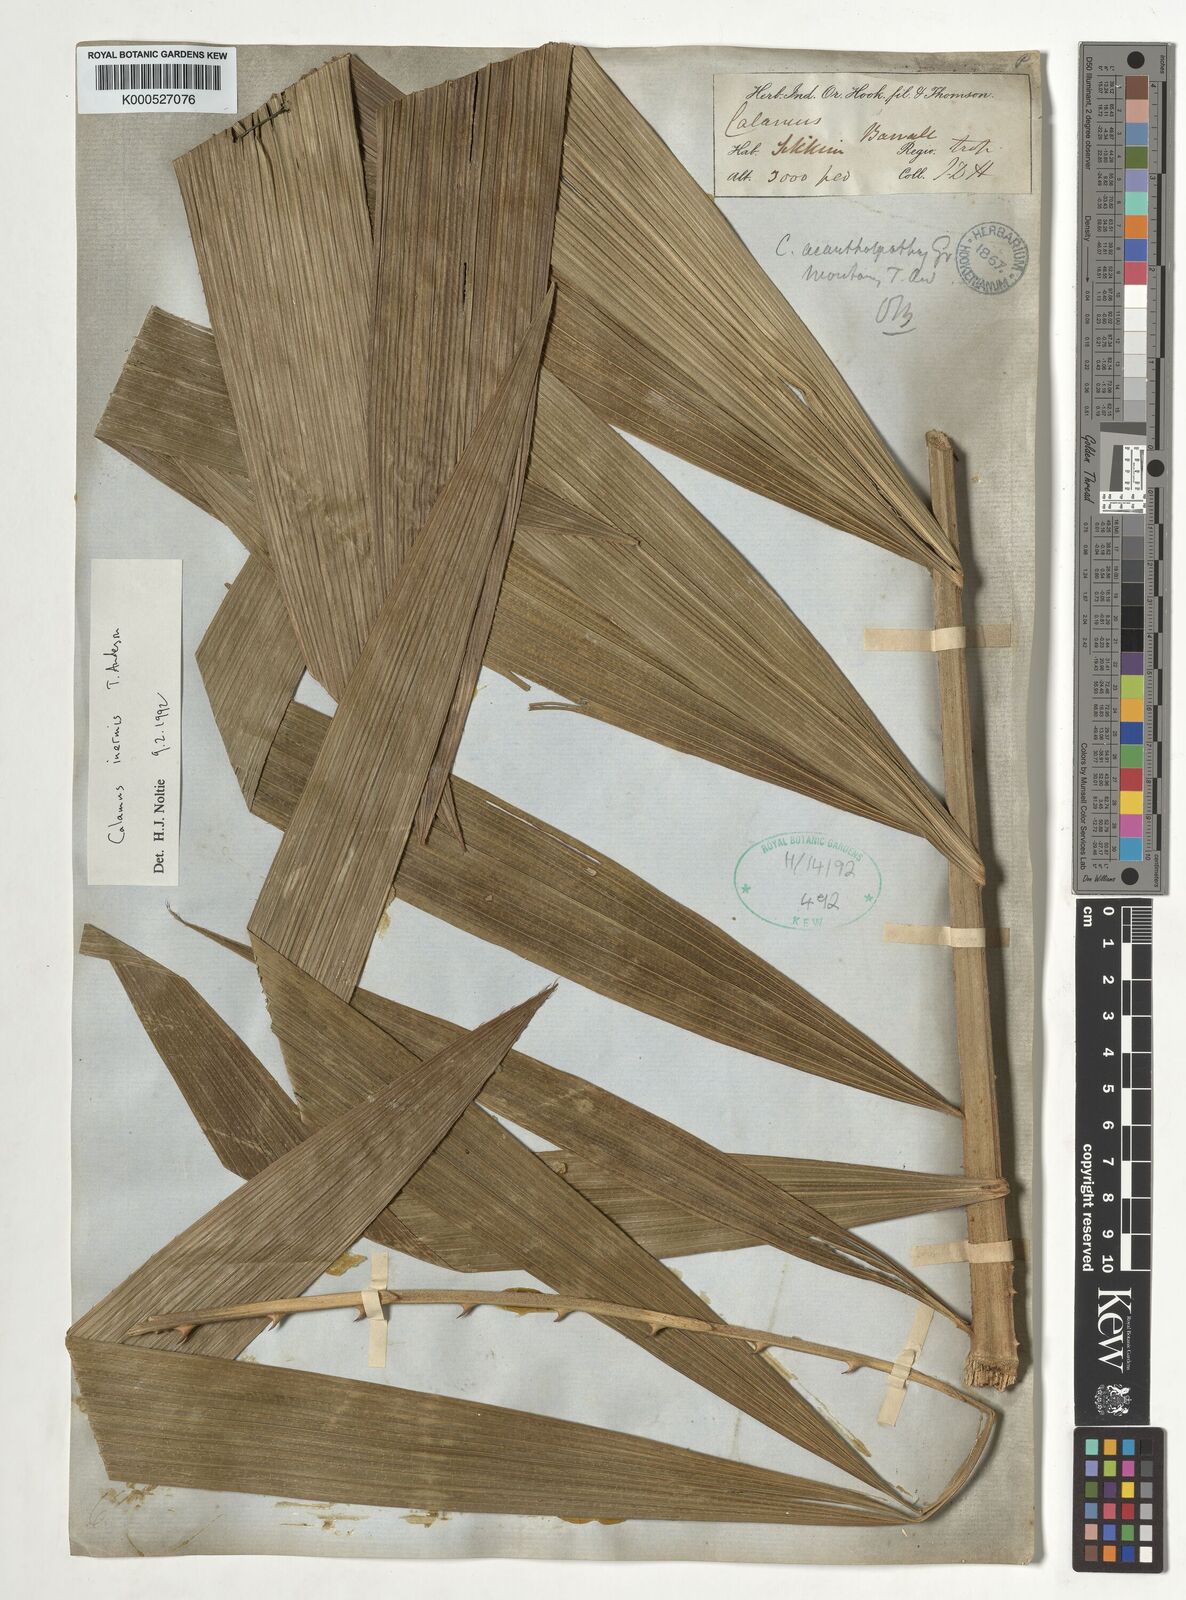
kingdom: Plantae
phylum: Tracheophyta
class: Liliopsida
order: Arecales
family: Arecaceae
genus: Calamus
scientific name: Calamus latifolius
